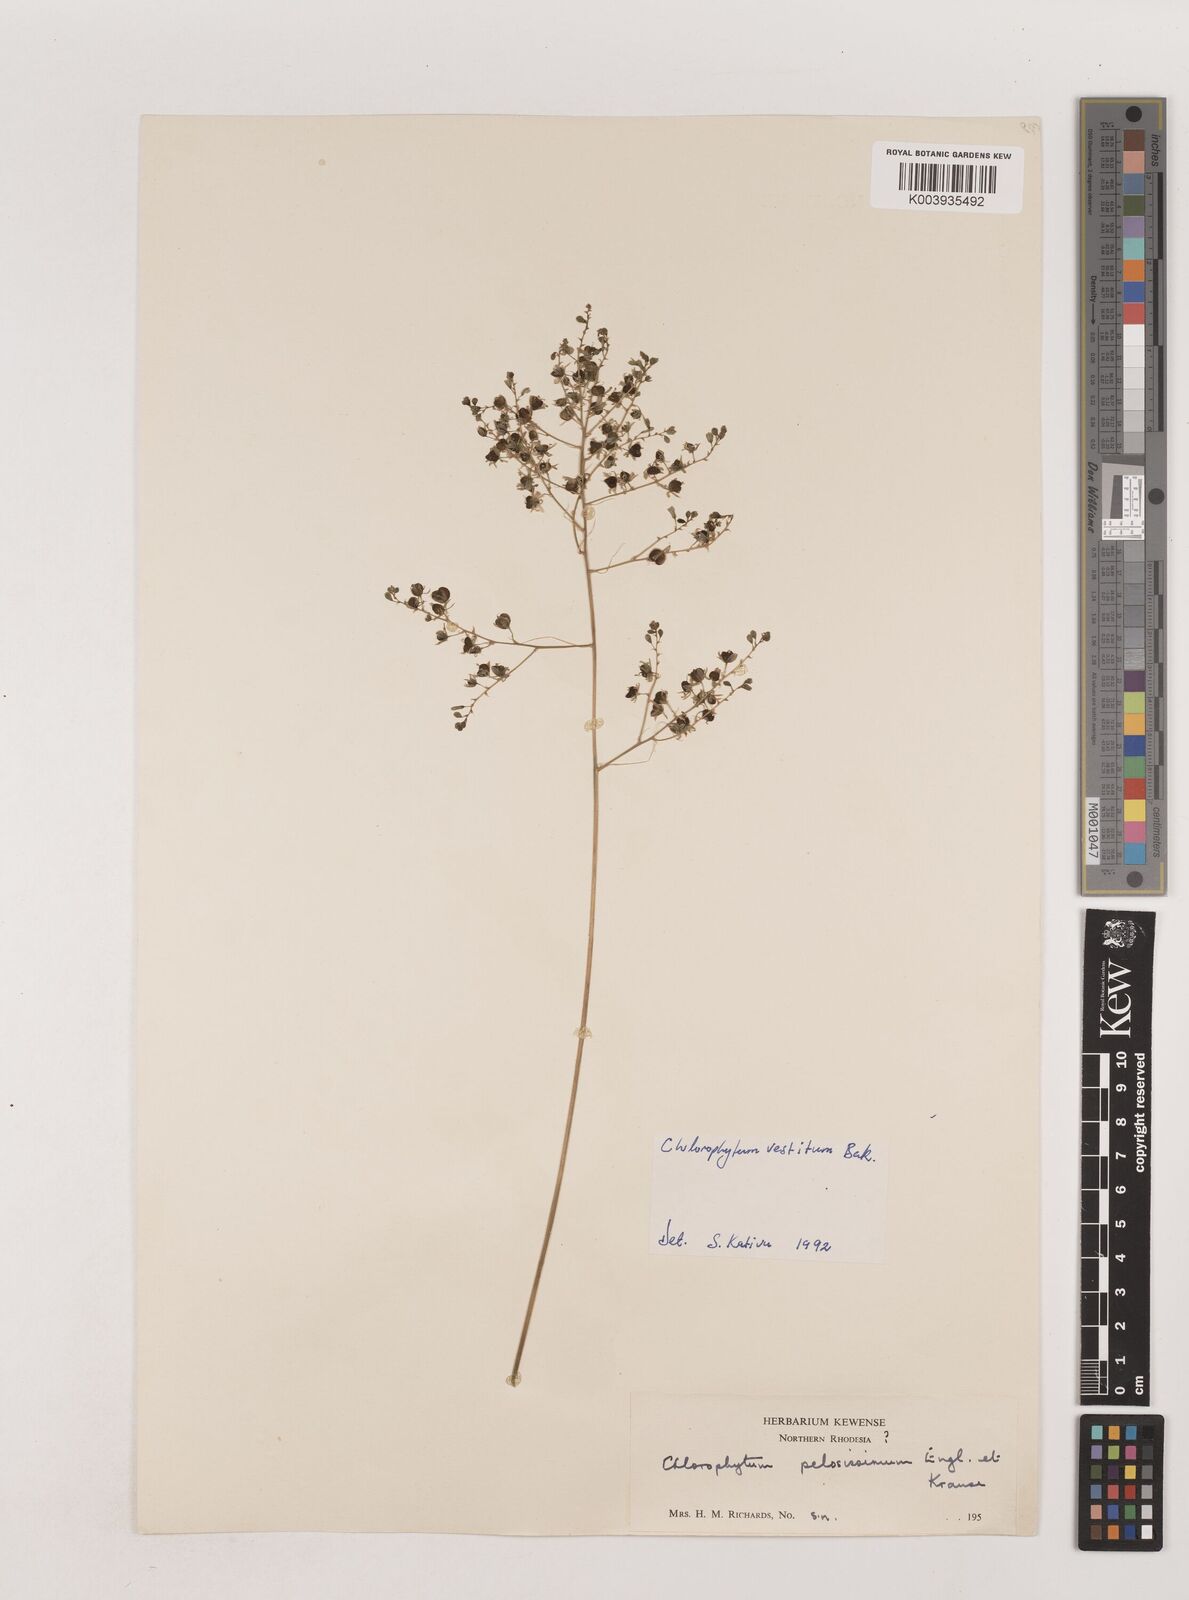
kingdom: Plantae
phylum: Tracheophyta
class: Liliopsida
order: Asparagales
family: Asparagaceae
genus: Chlorophytum
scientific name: Chlorophytum vestitum
